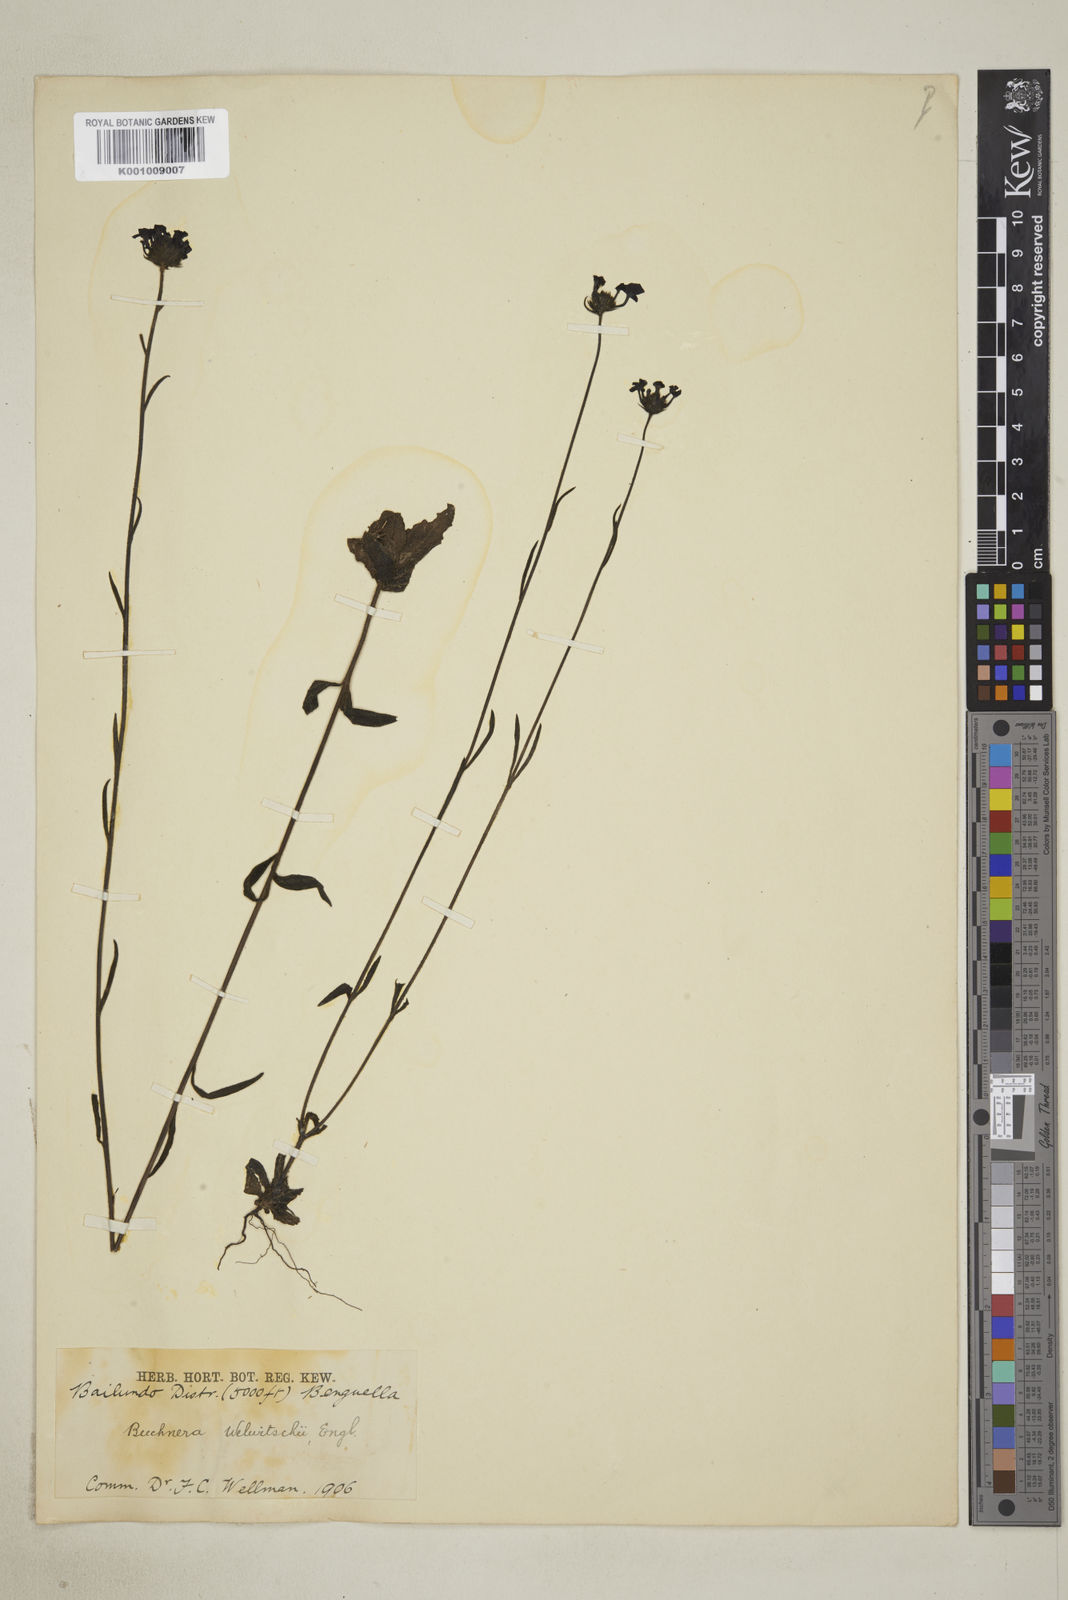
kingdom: Plantae
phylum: Tracheophyta
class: Magnoliopsida
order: Lamiales
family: Orobanchaceae
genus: Buchnera
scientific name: Buchnera welwitschii
